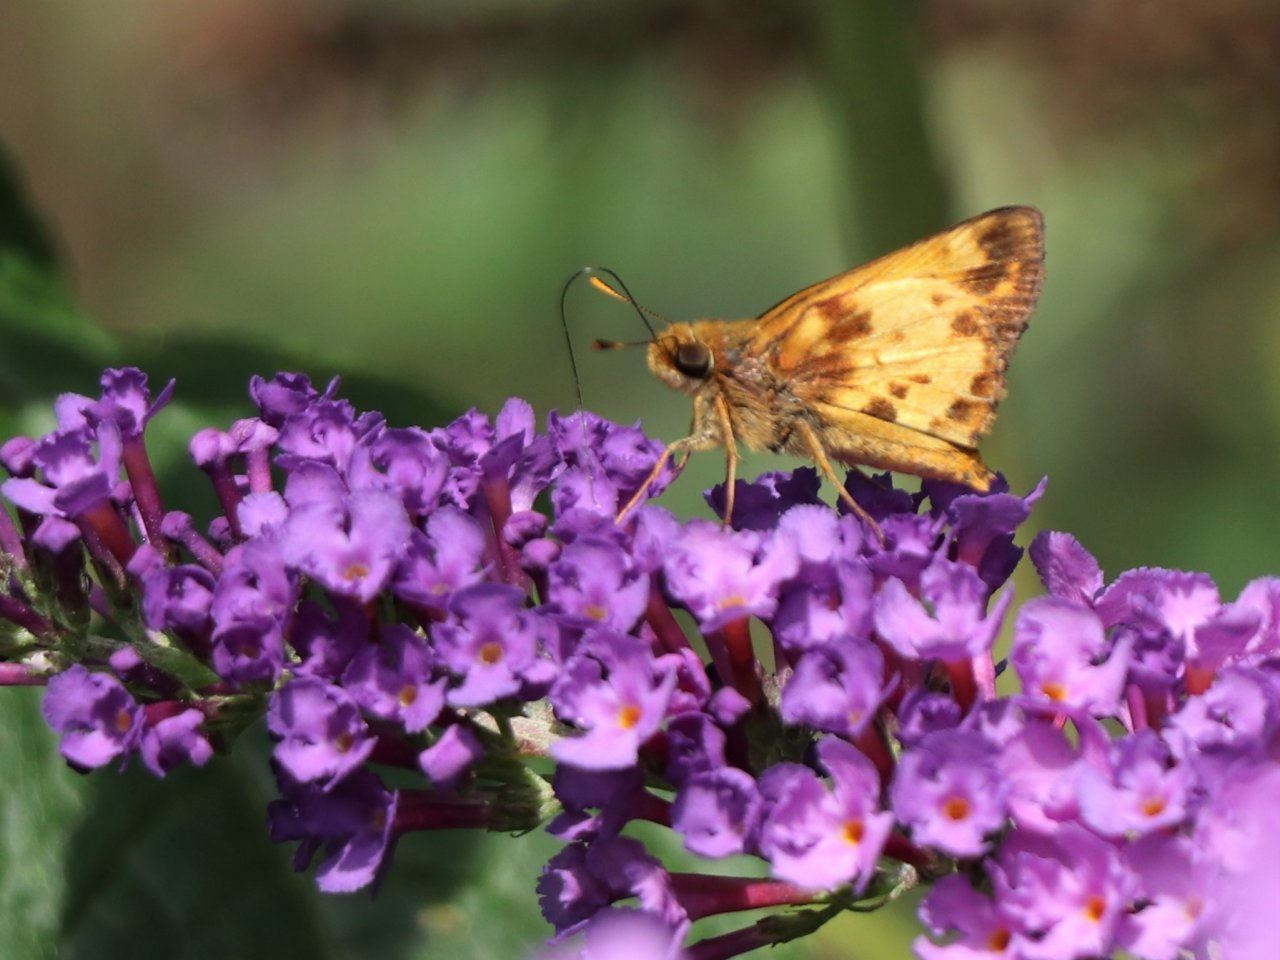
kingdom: Animalia
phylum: Arthropoda
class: Insecta
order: Lepidoptera
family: Hesperiidae
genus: Lon
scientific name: Lon zabulon
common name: Zabulon Skipper
